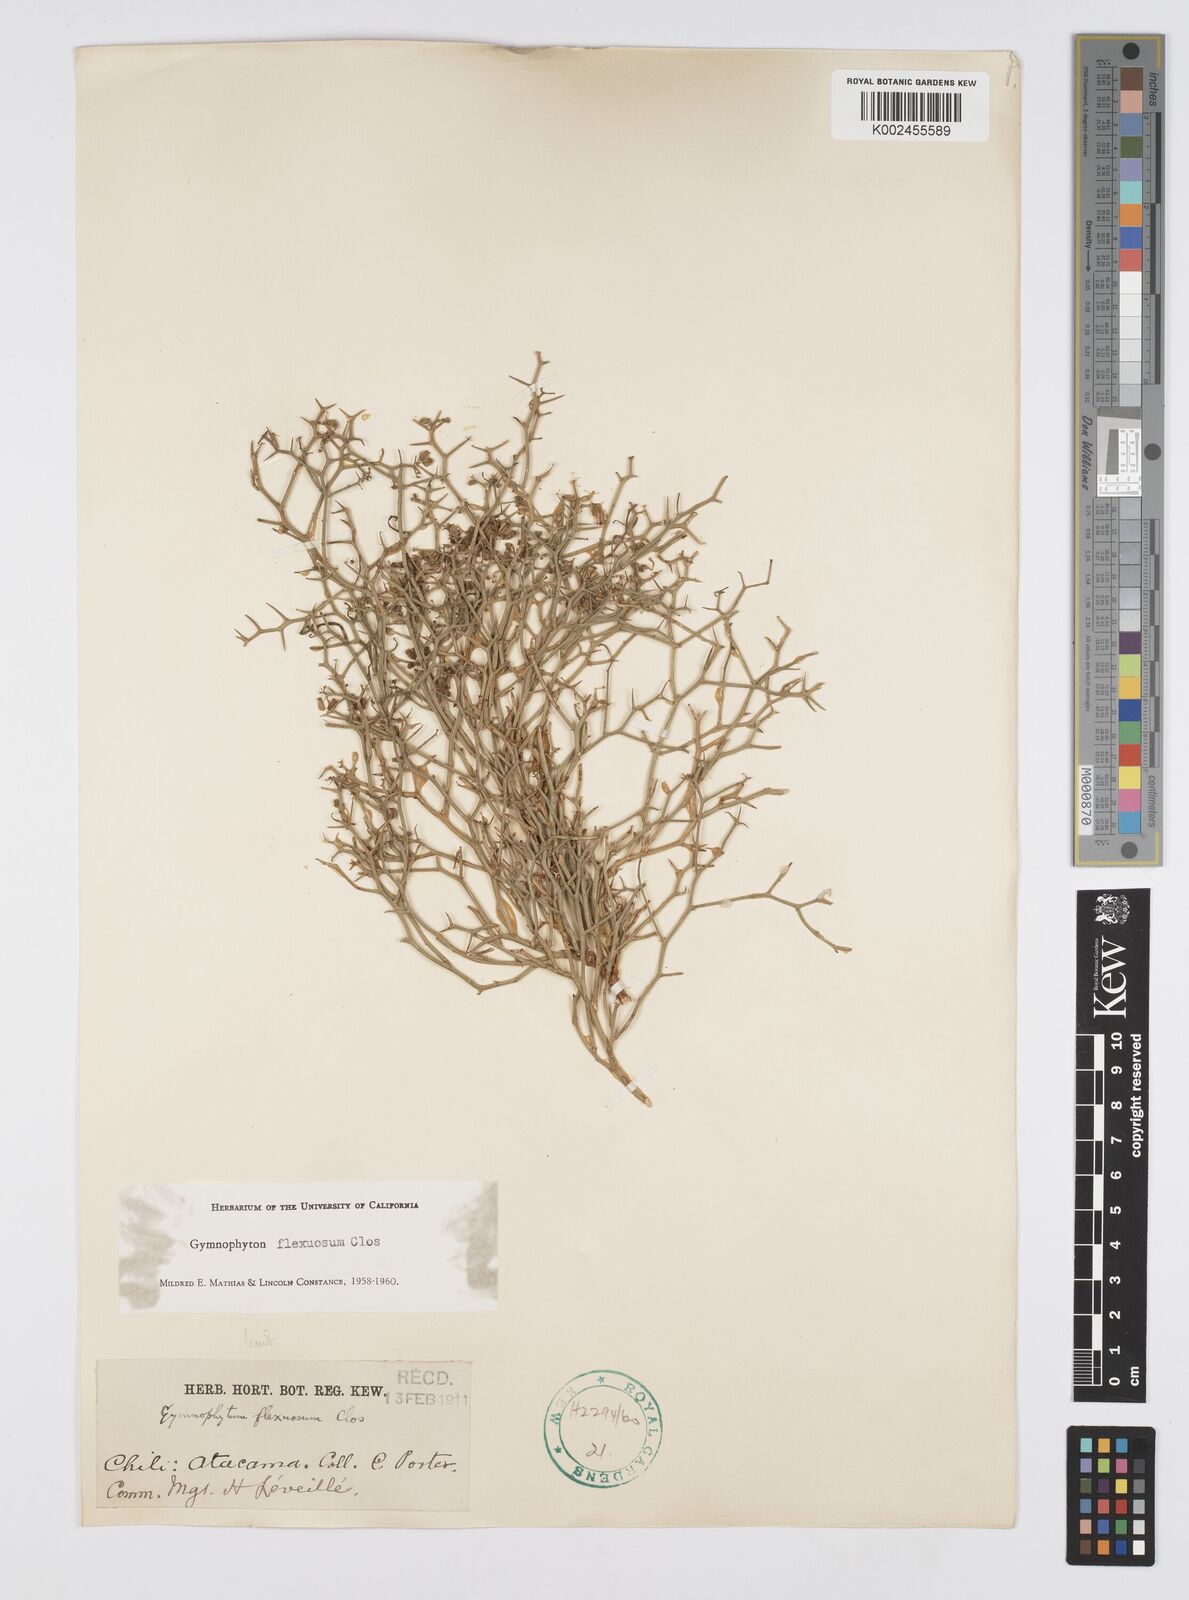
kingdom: Plantae
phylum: Tracheophyta
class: Magnoliopsida
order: Apiales
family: Apiaceae
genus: Gymnophyton
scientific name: Gymnophyton flexuosum
